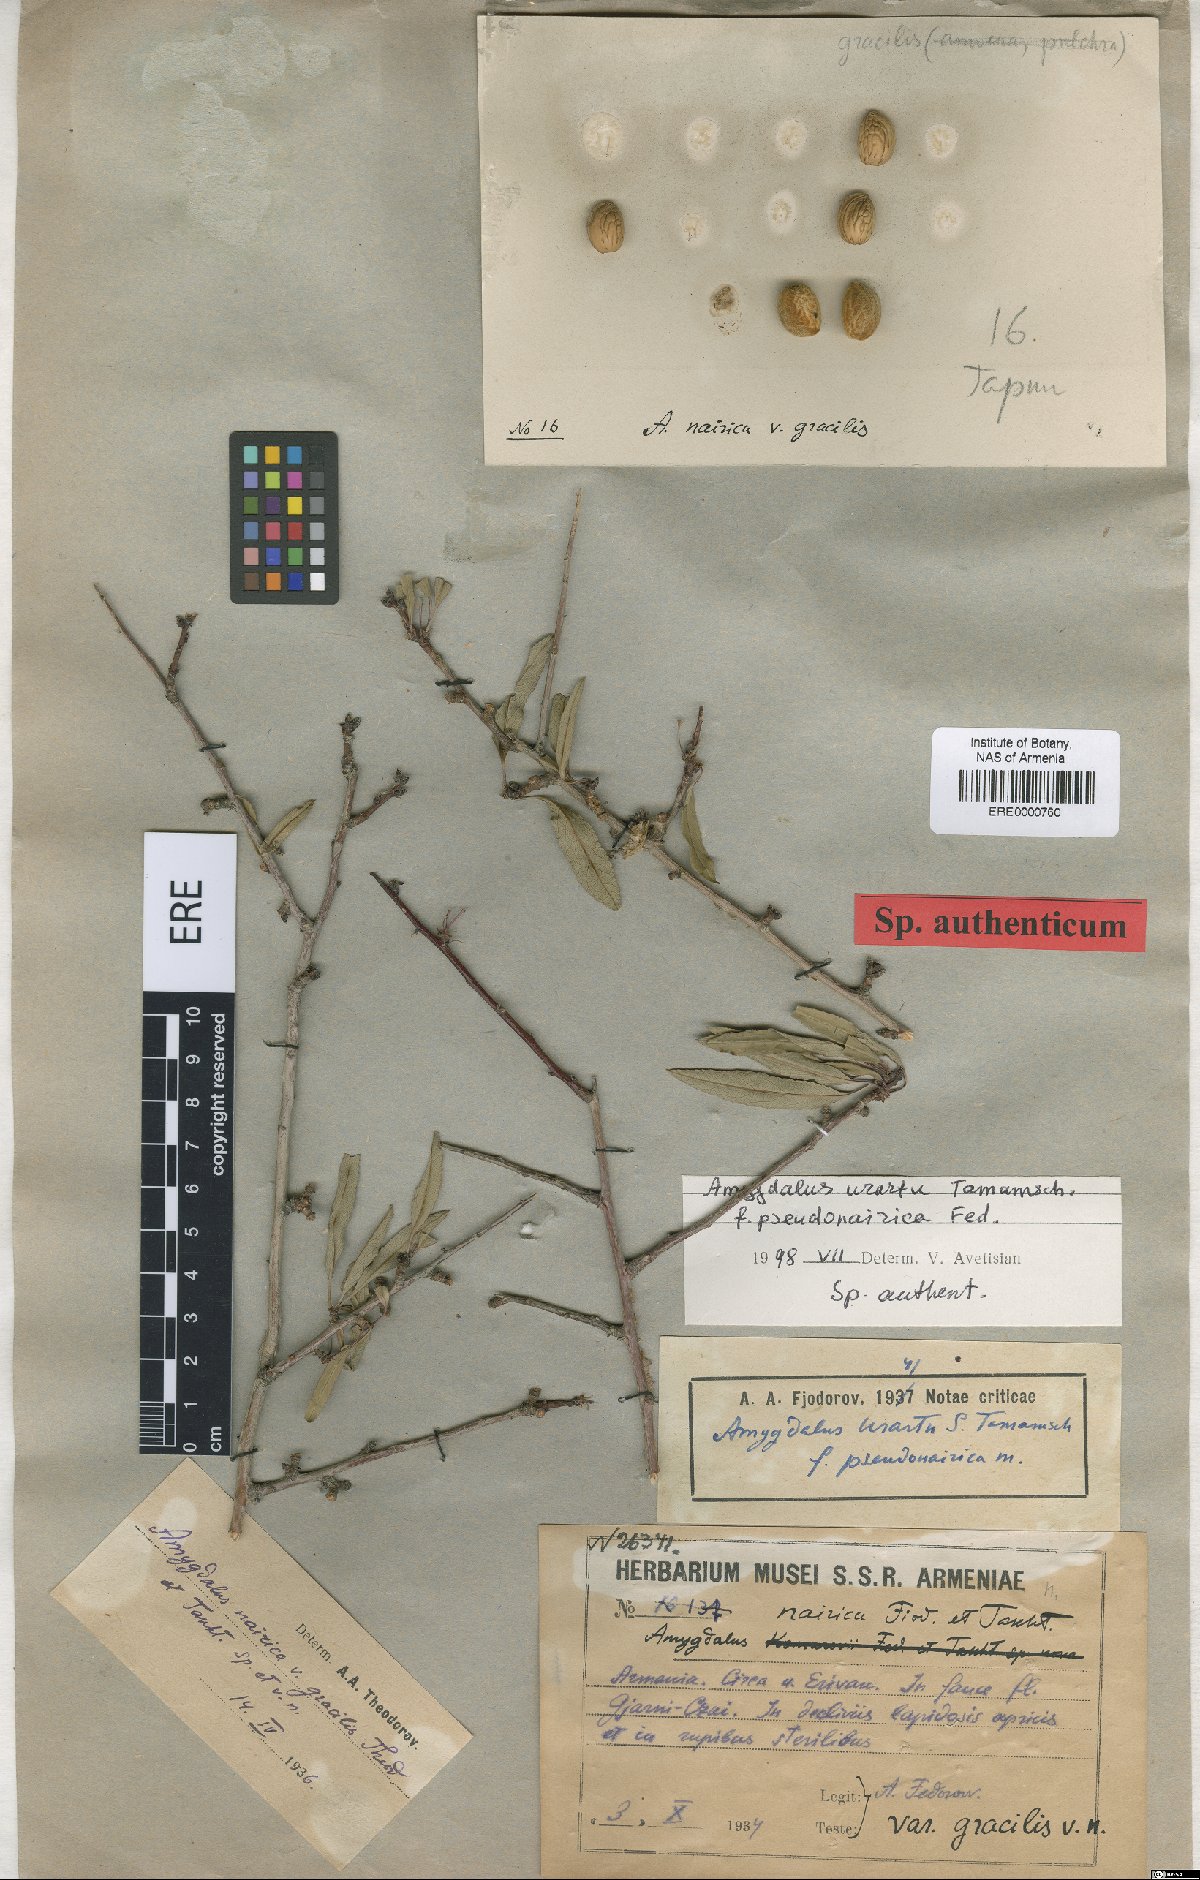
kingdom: Plantae
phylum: Tracheophyta
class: Magnoliopsida
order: Rosales
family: Rosaceae
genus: Prunus
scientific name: Prunus urartu
